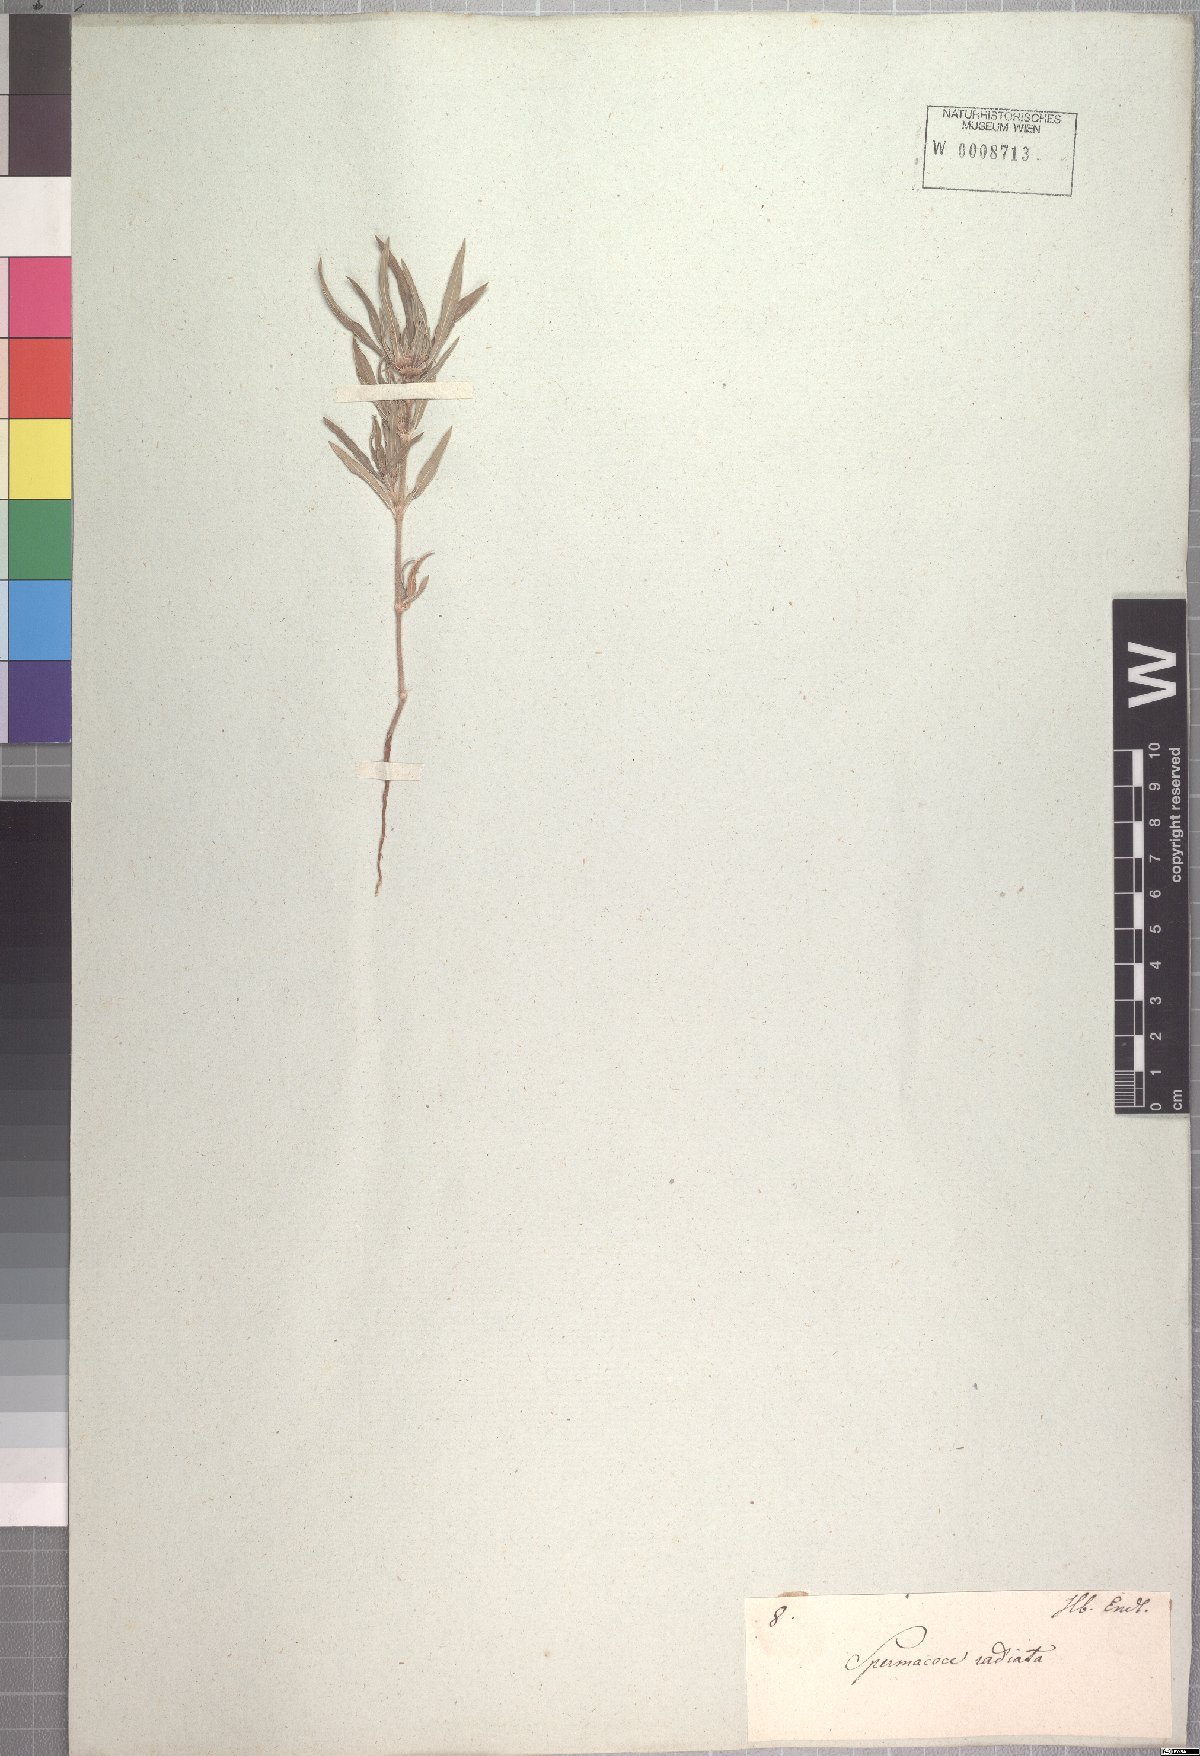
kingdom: Plantae
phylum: Tracheophyta
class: Magnoliopsida
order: Gentianales
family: Rubiaceae
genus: Spermacoce
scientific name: Spermacoce radiata
